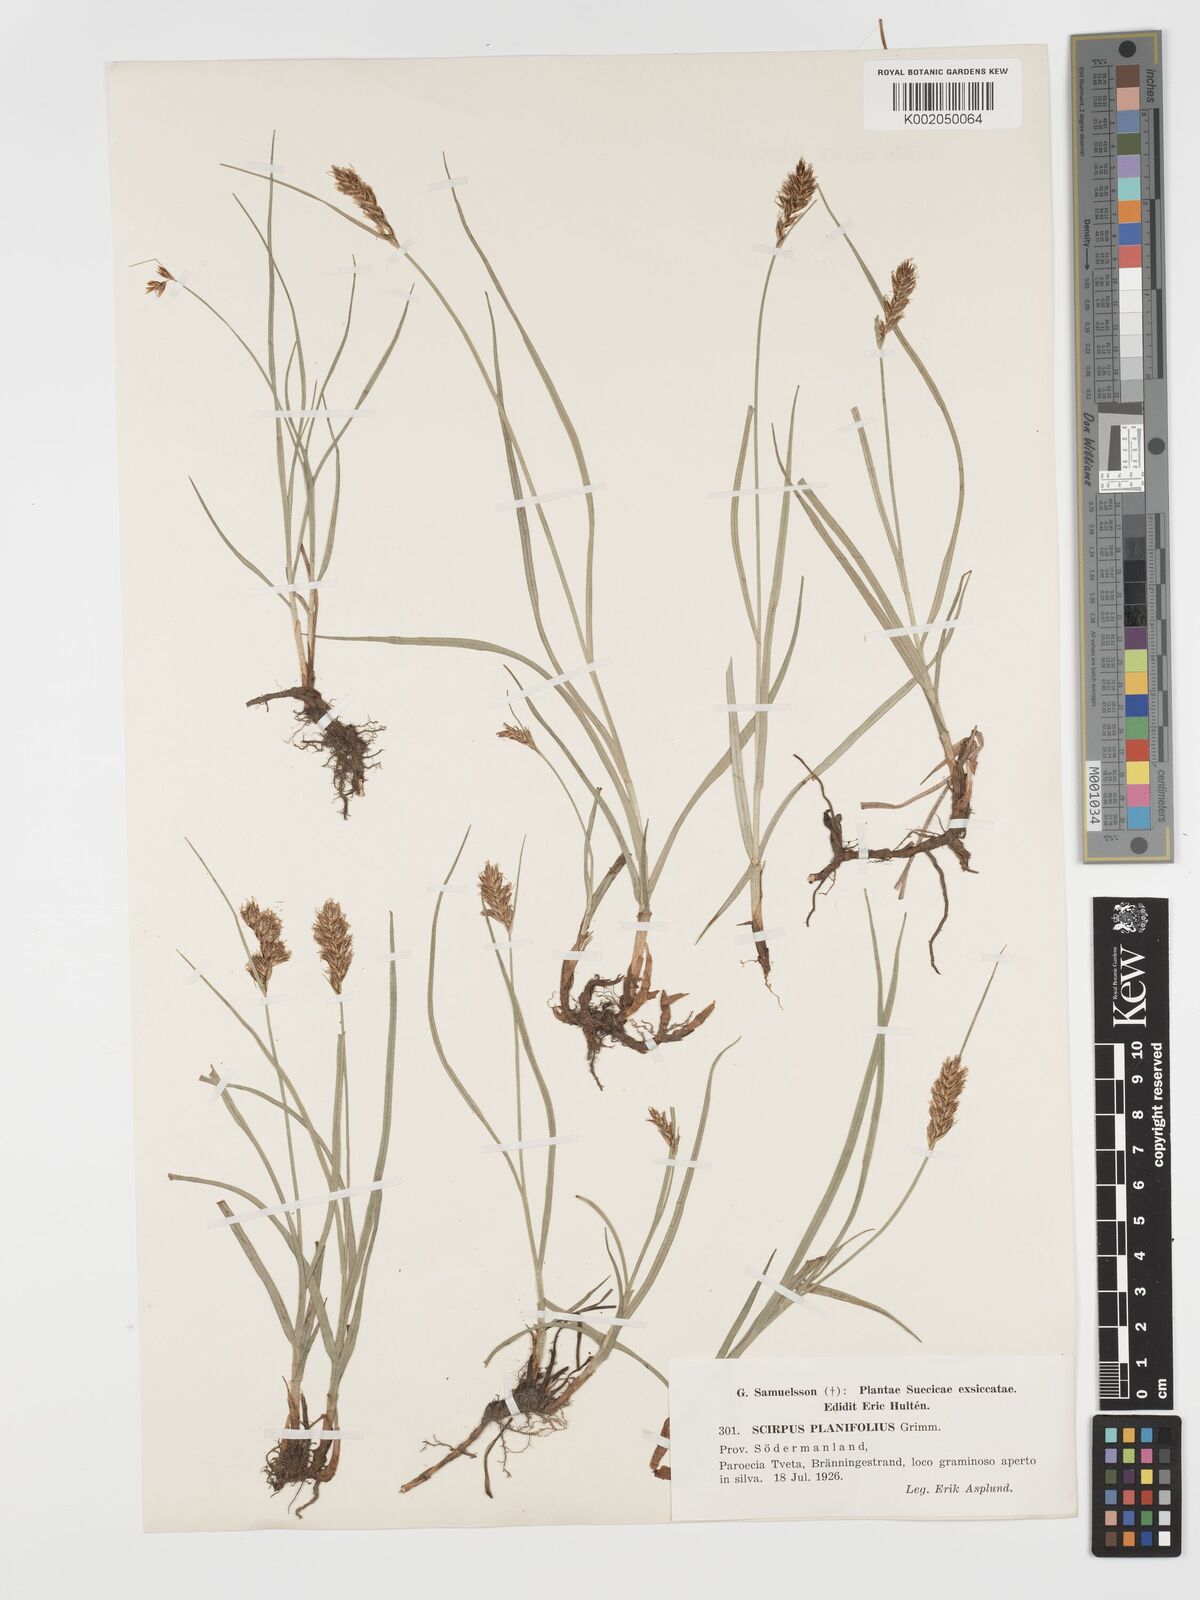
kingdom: Plantae
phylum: Tracheophyta
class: Liliopsida
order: Poales
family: Cyperaceae
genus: Blysmus
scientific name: Blysmus compressus
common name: Flat-sedge
